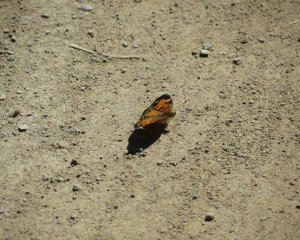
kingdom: Animalia
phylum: Arthropoda
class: Insecta
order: Lepidoptera
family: Nymphalidae
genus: Phyciodes
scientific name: Phyciodes tharos
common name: Northern Crescent
